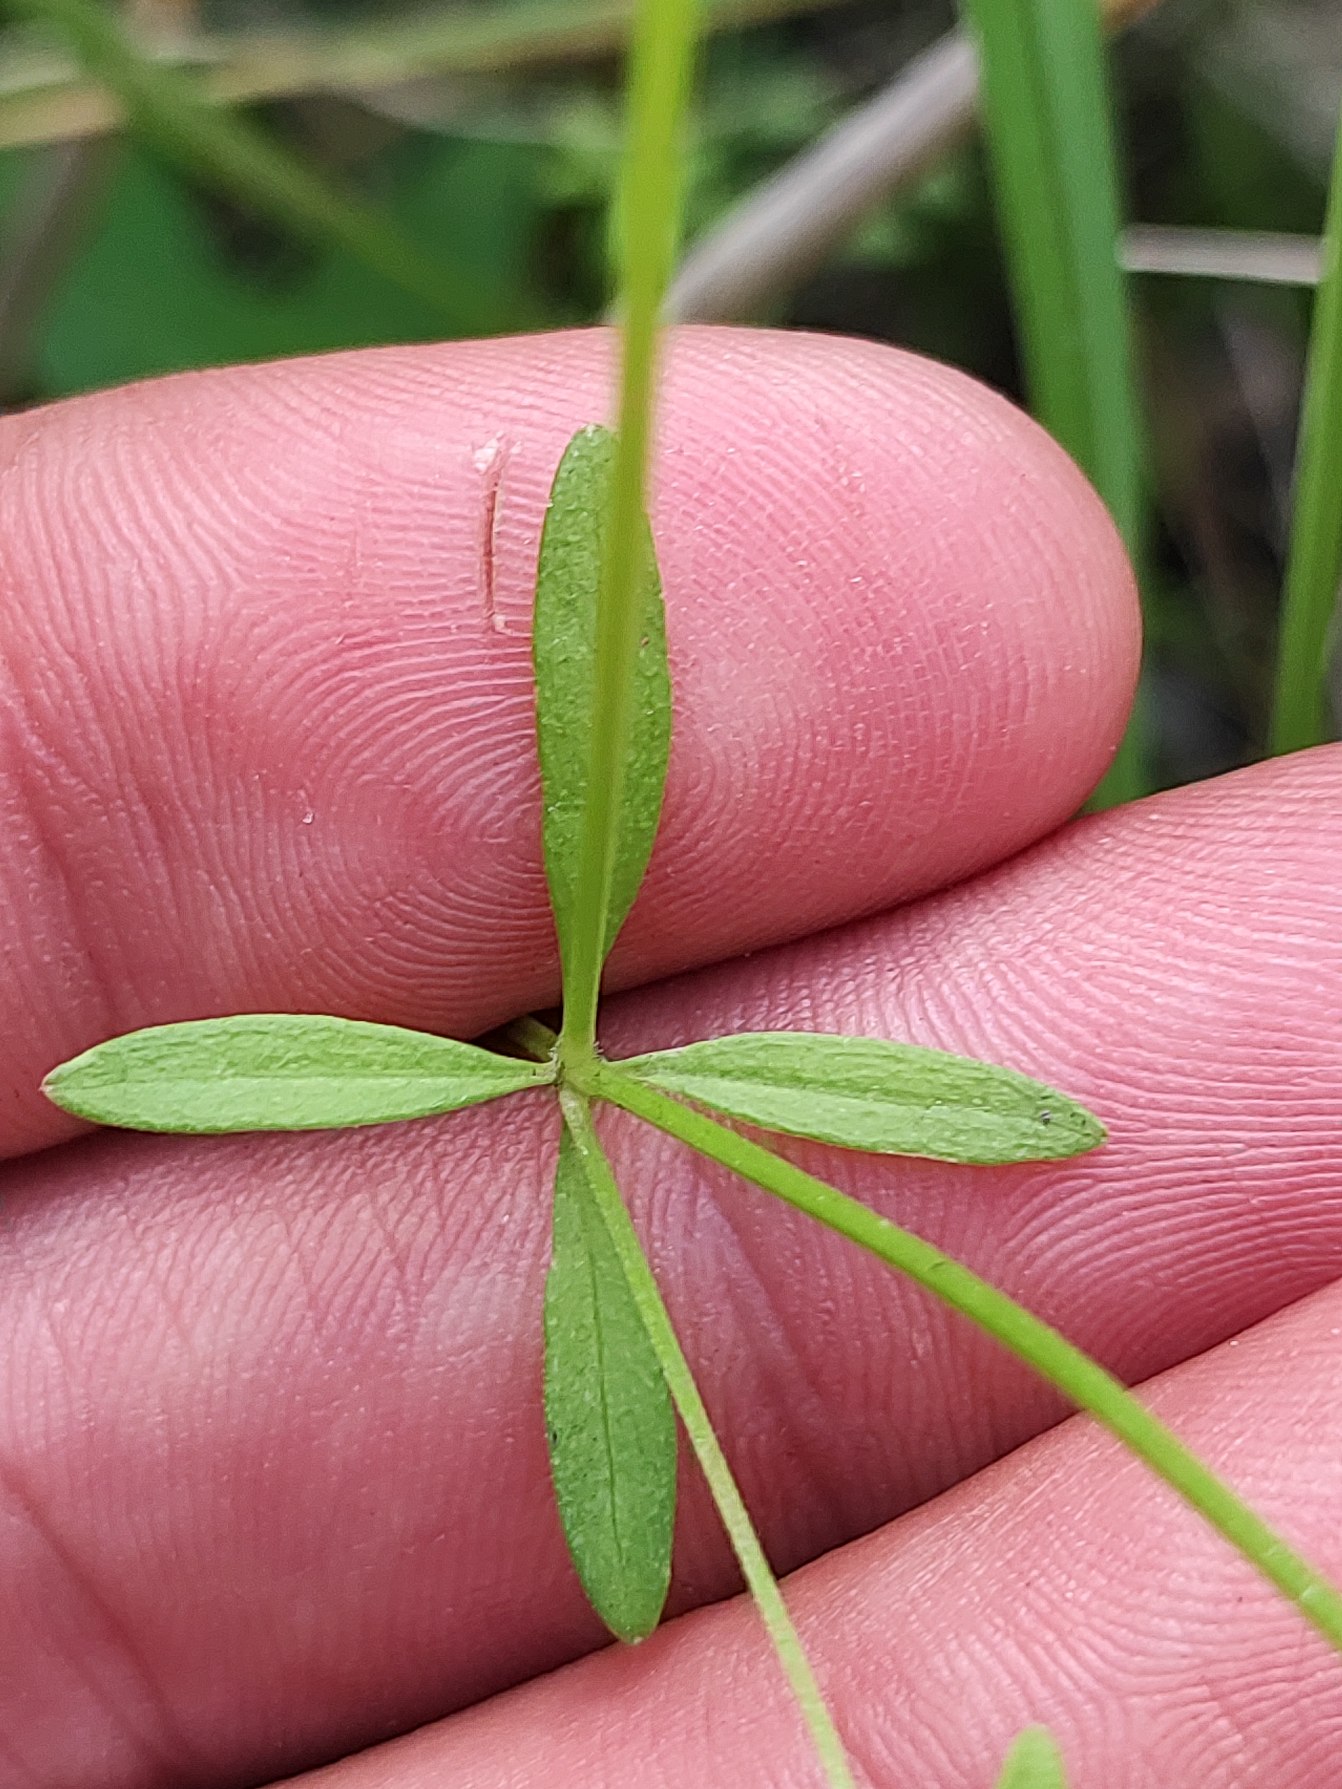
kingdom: Plantae
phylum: Tracheophyta
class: Magnoliopsida
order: Gentianales
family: Rubiaceae
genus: Galium
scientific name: Galium palustre
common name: Kær-snerre
